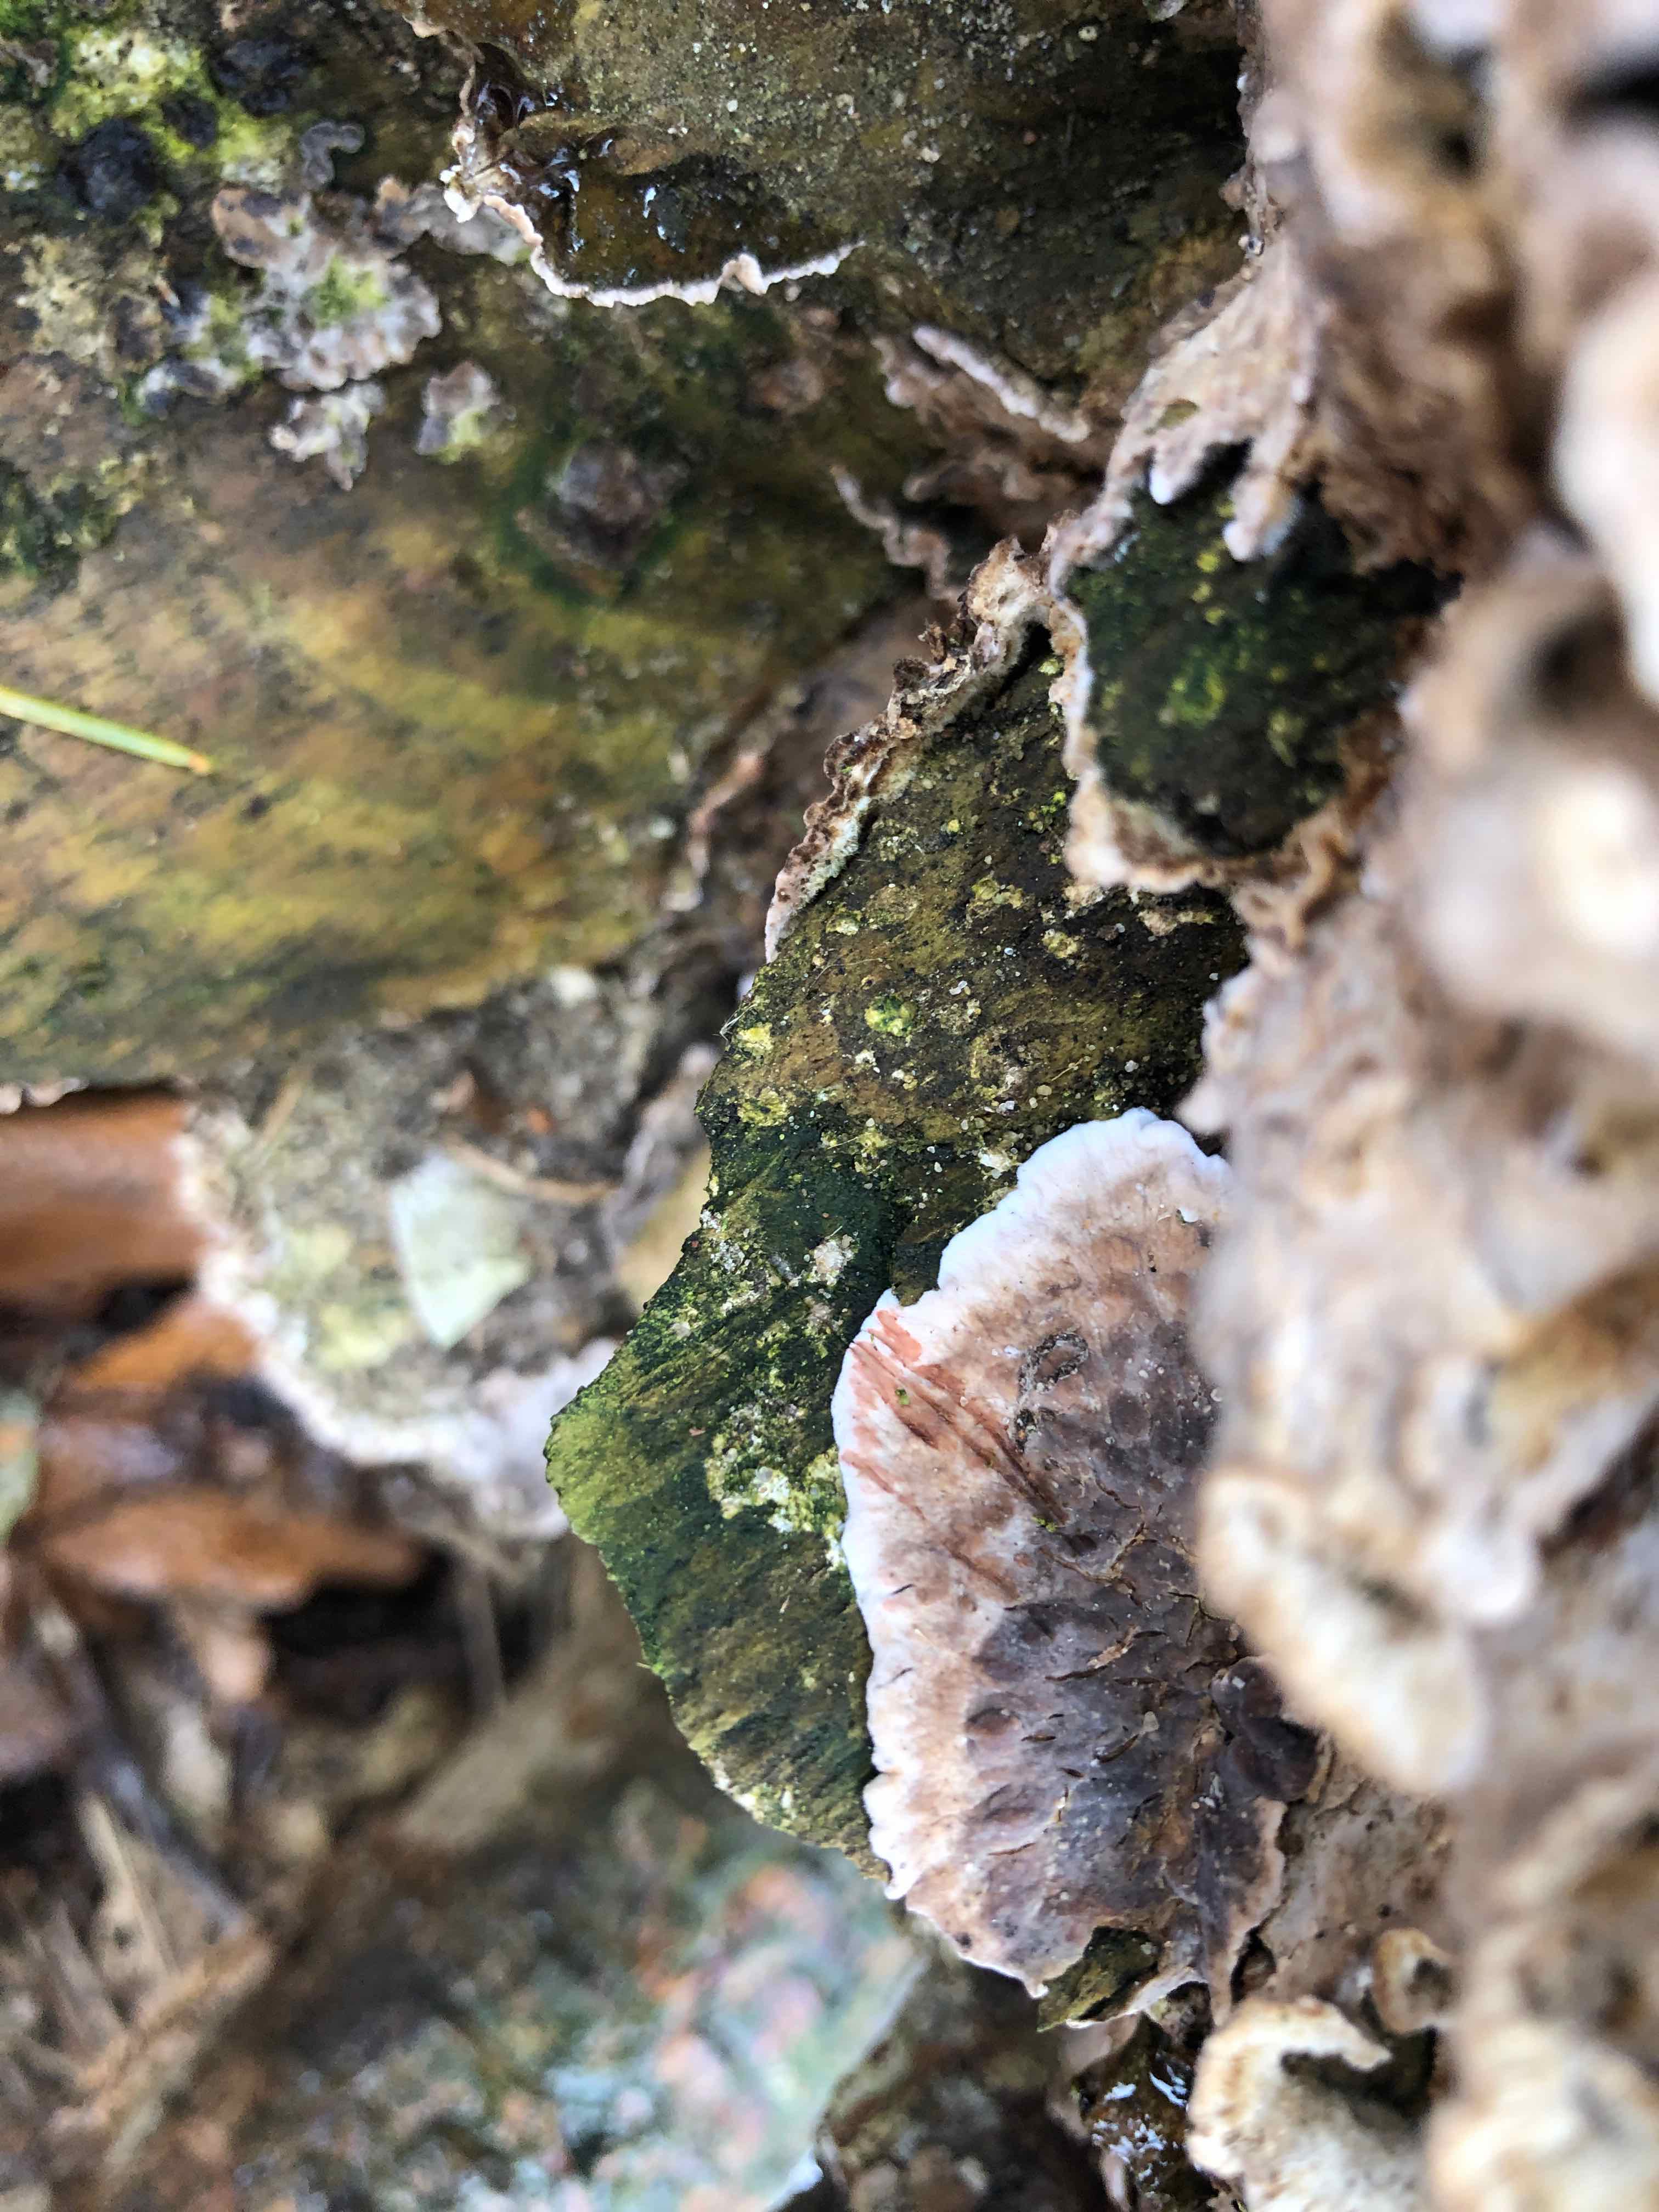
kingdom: Fungi
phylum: Basidiomycota
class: Agaricomycetes
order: Russulales
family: Stereaceae
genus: Stereum
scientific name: Stereum sanguinolentum
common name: blødende lædersvamp
